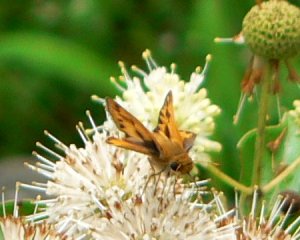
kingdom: Animalia
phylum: Arthropoda
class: Insecta
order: Lepidoptera
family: Hesperiidae
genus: Hylephila
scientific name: Hylephila phyleus
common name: Fiery Skipper
